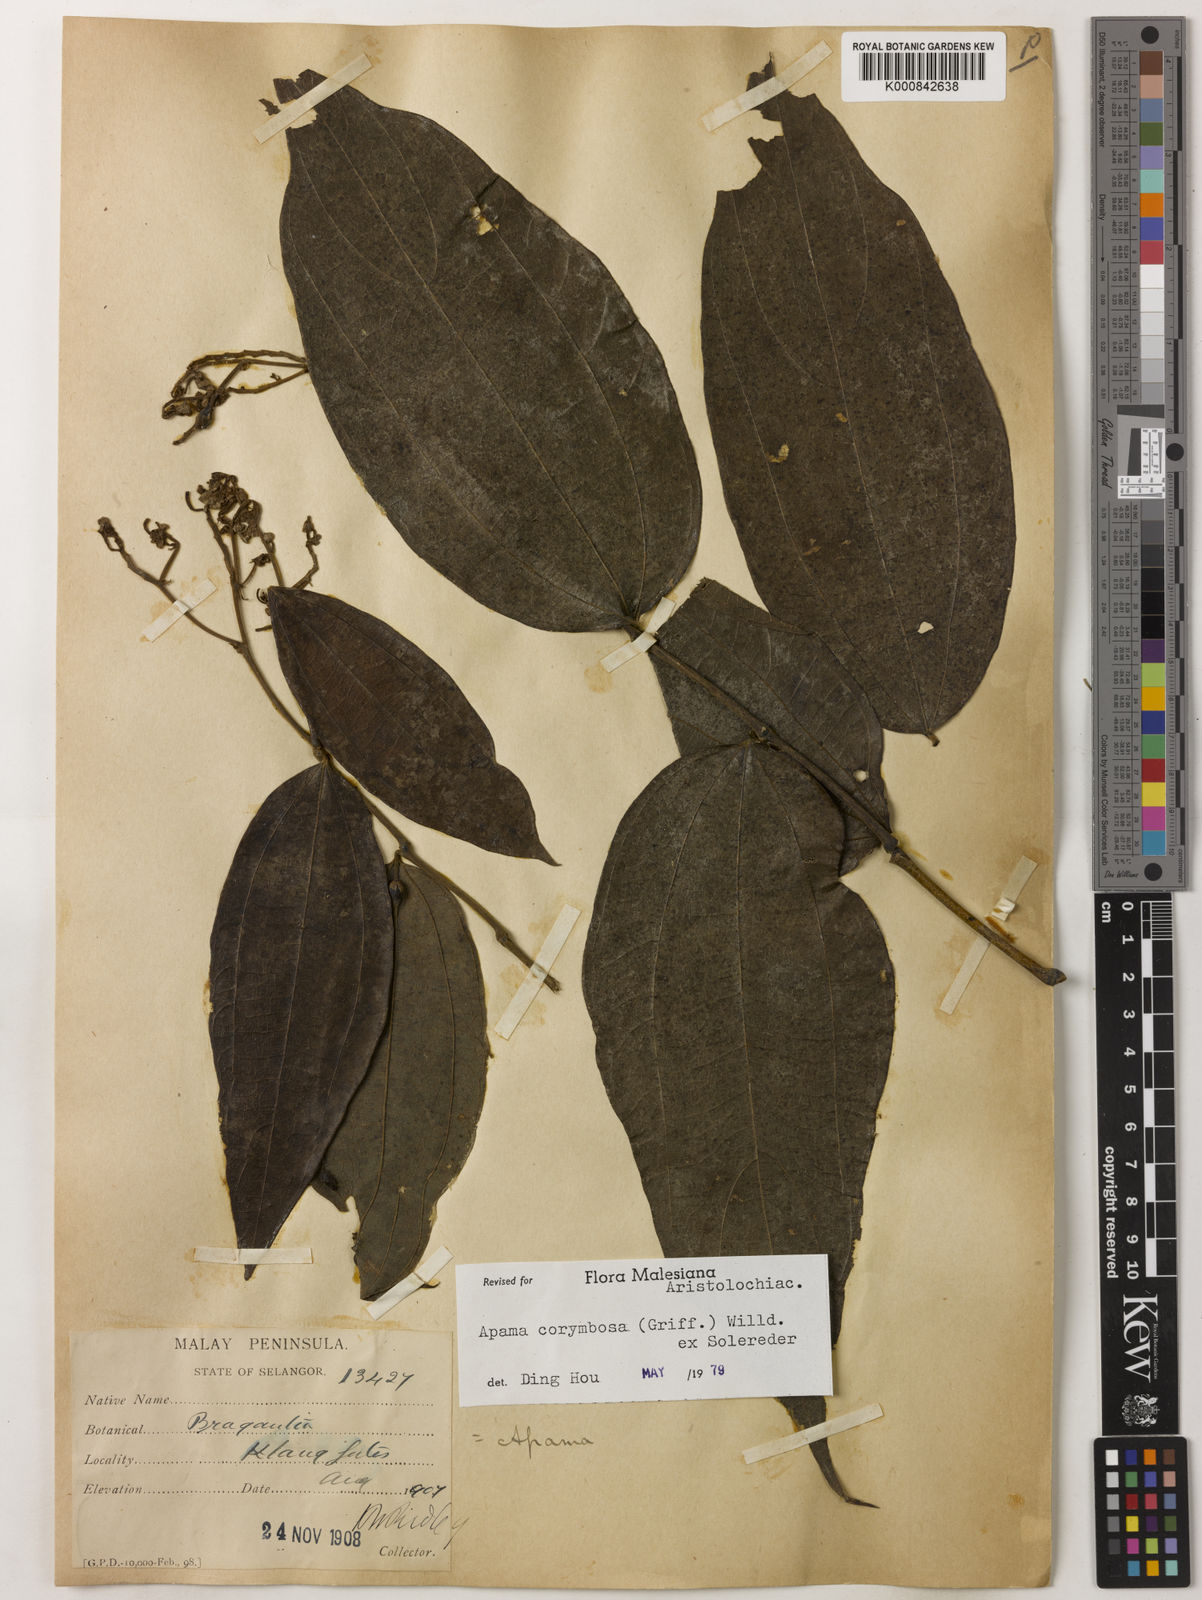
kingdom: Plantae
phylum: Tracheophyta
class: Magnoliopsida
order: Piperales
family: Aristolochiaceae
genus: Thottea
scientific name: Thottea piperiformis
